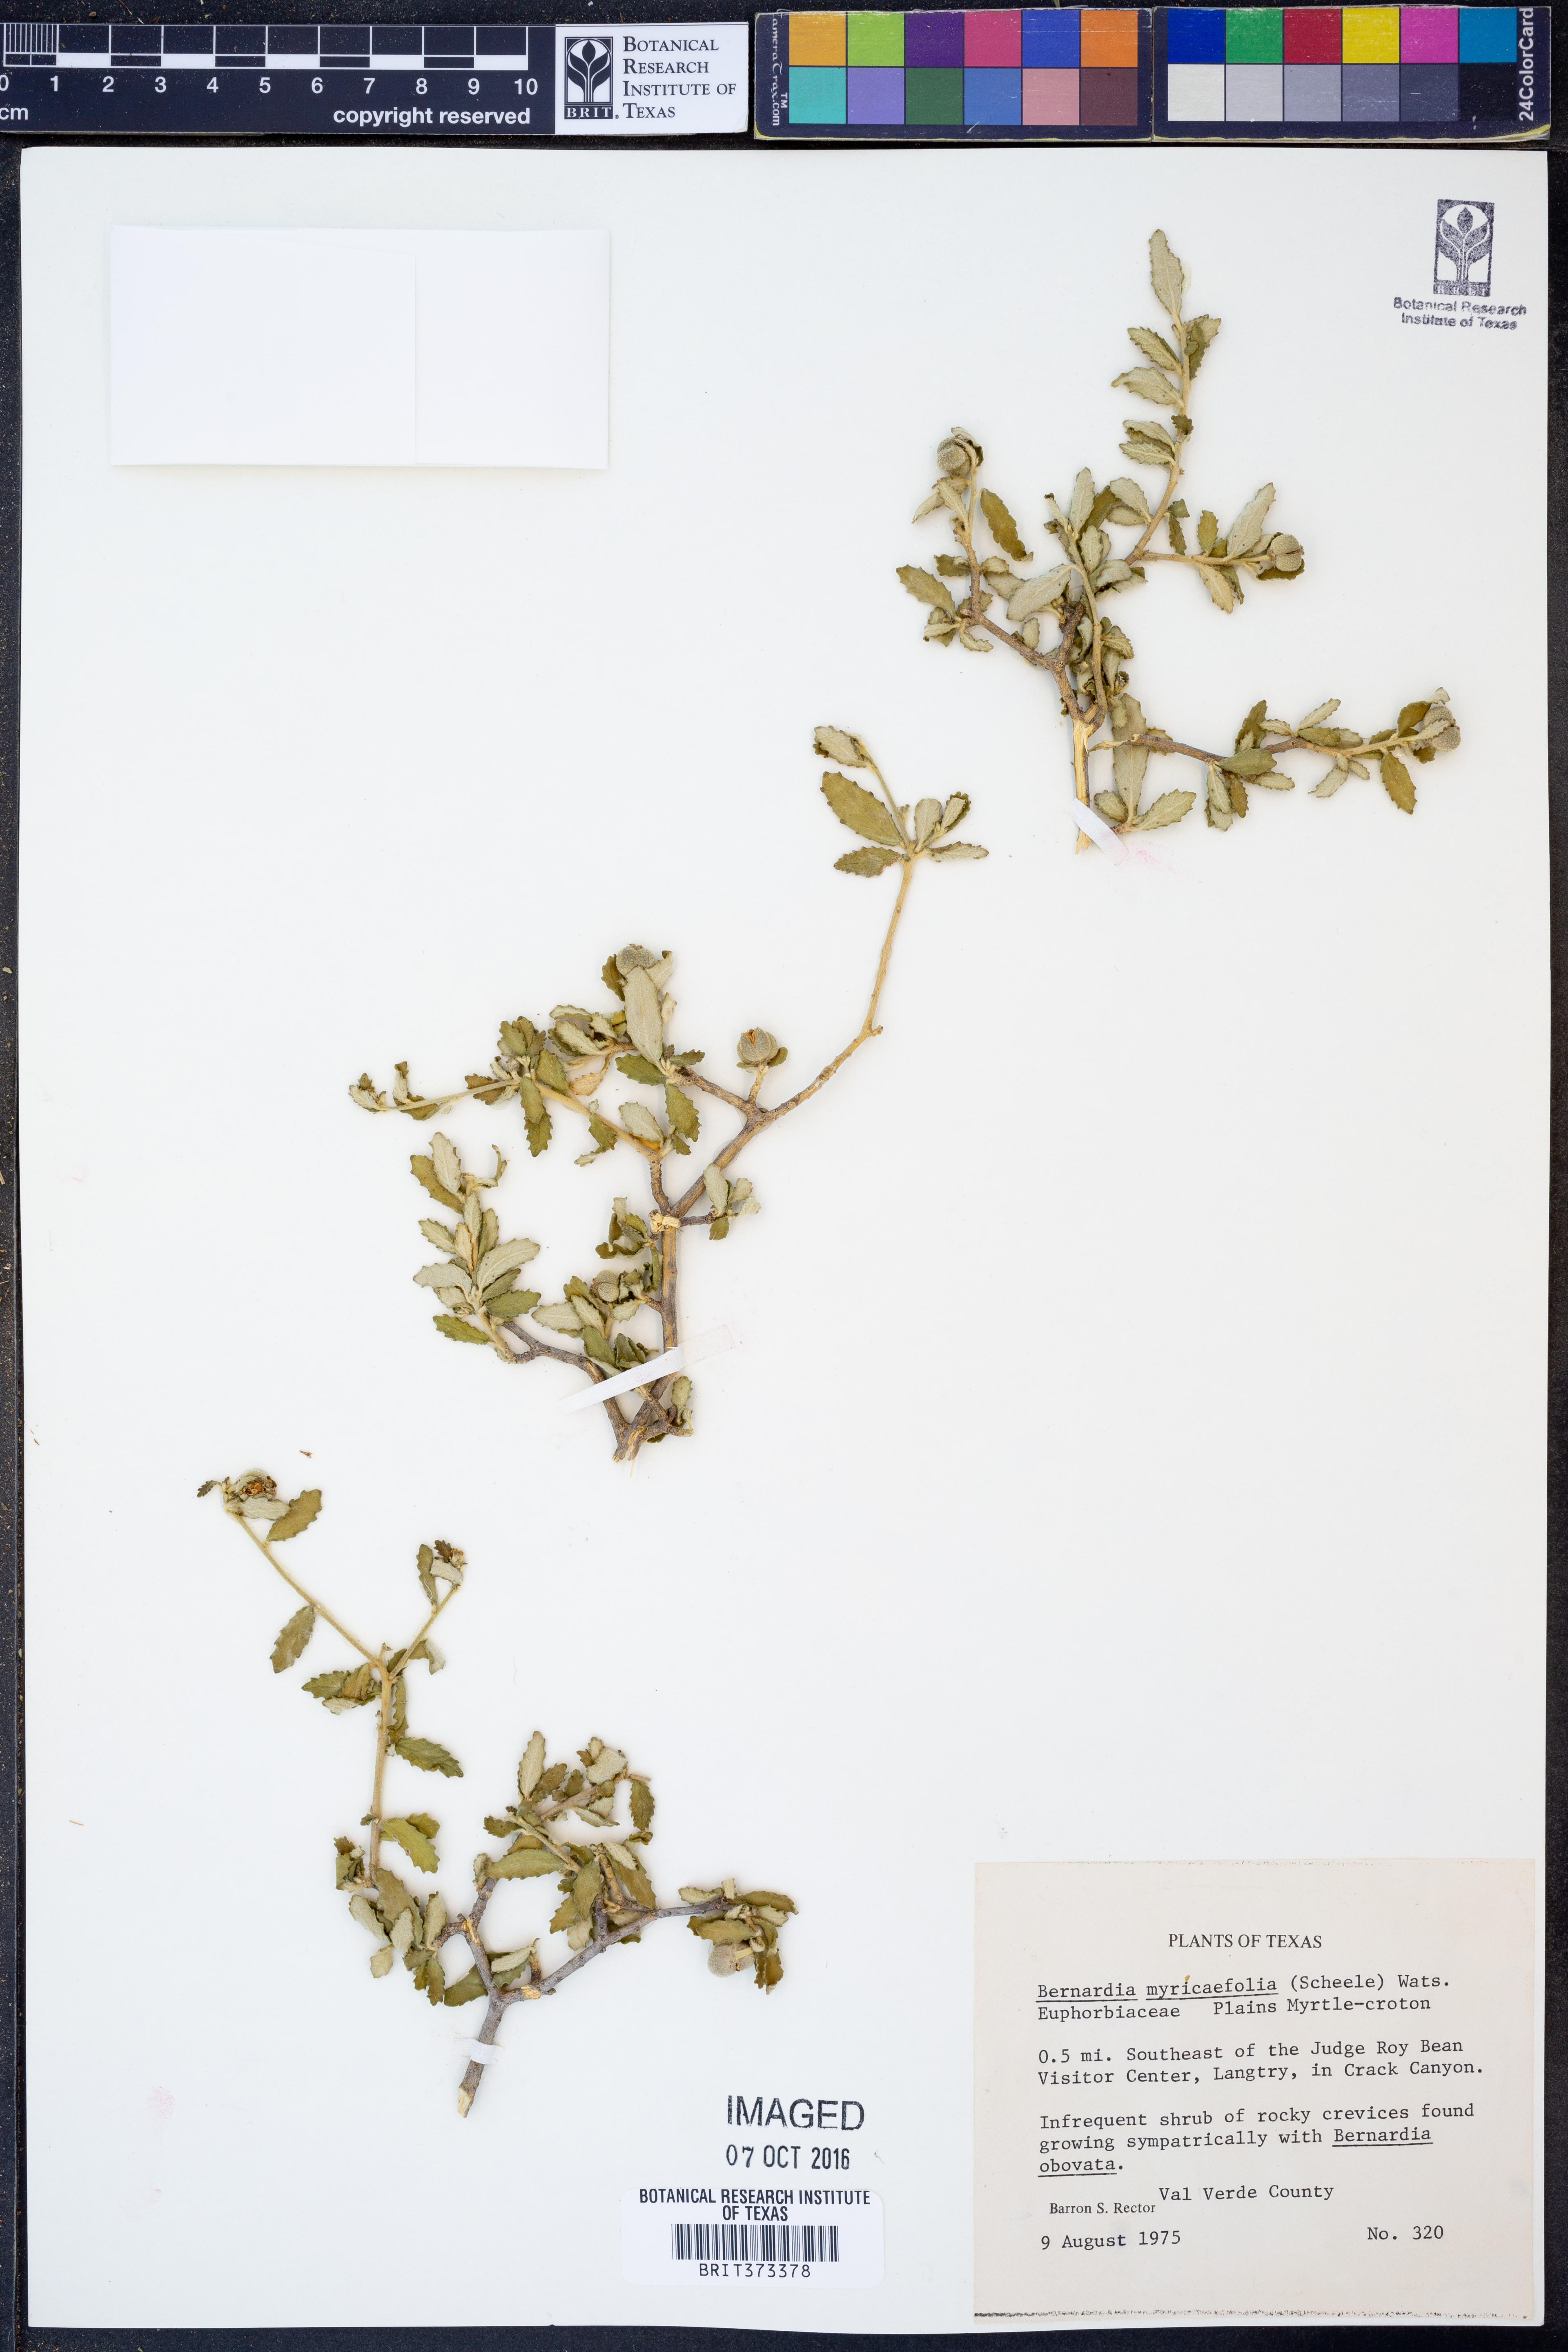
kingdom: Plantae
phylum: Tracheophyta
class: Magnoliopsida
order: Malpighiales
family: Euphorbiaceae
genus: Bernardia
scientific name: Bernardia myricifolia
